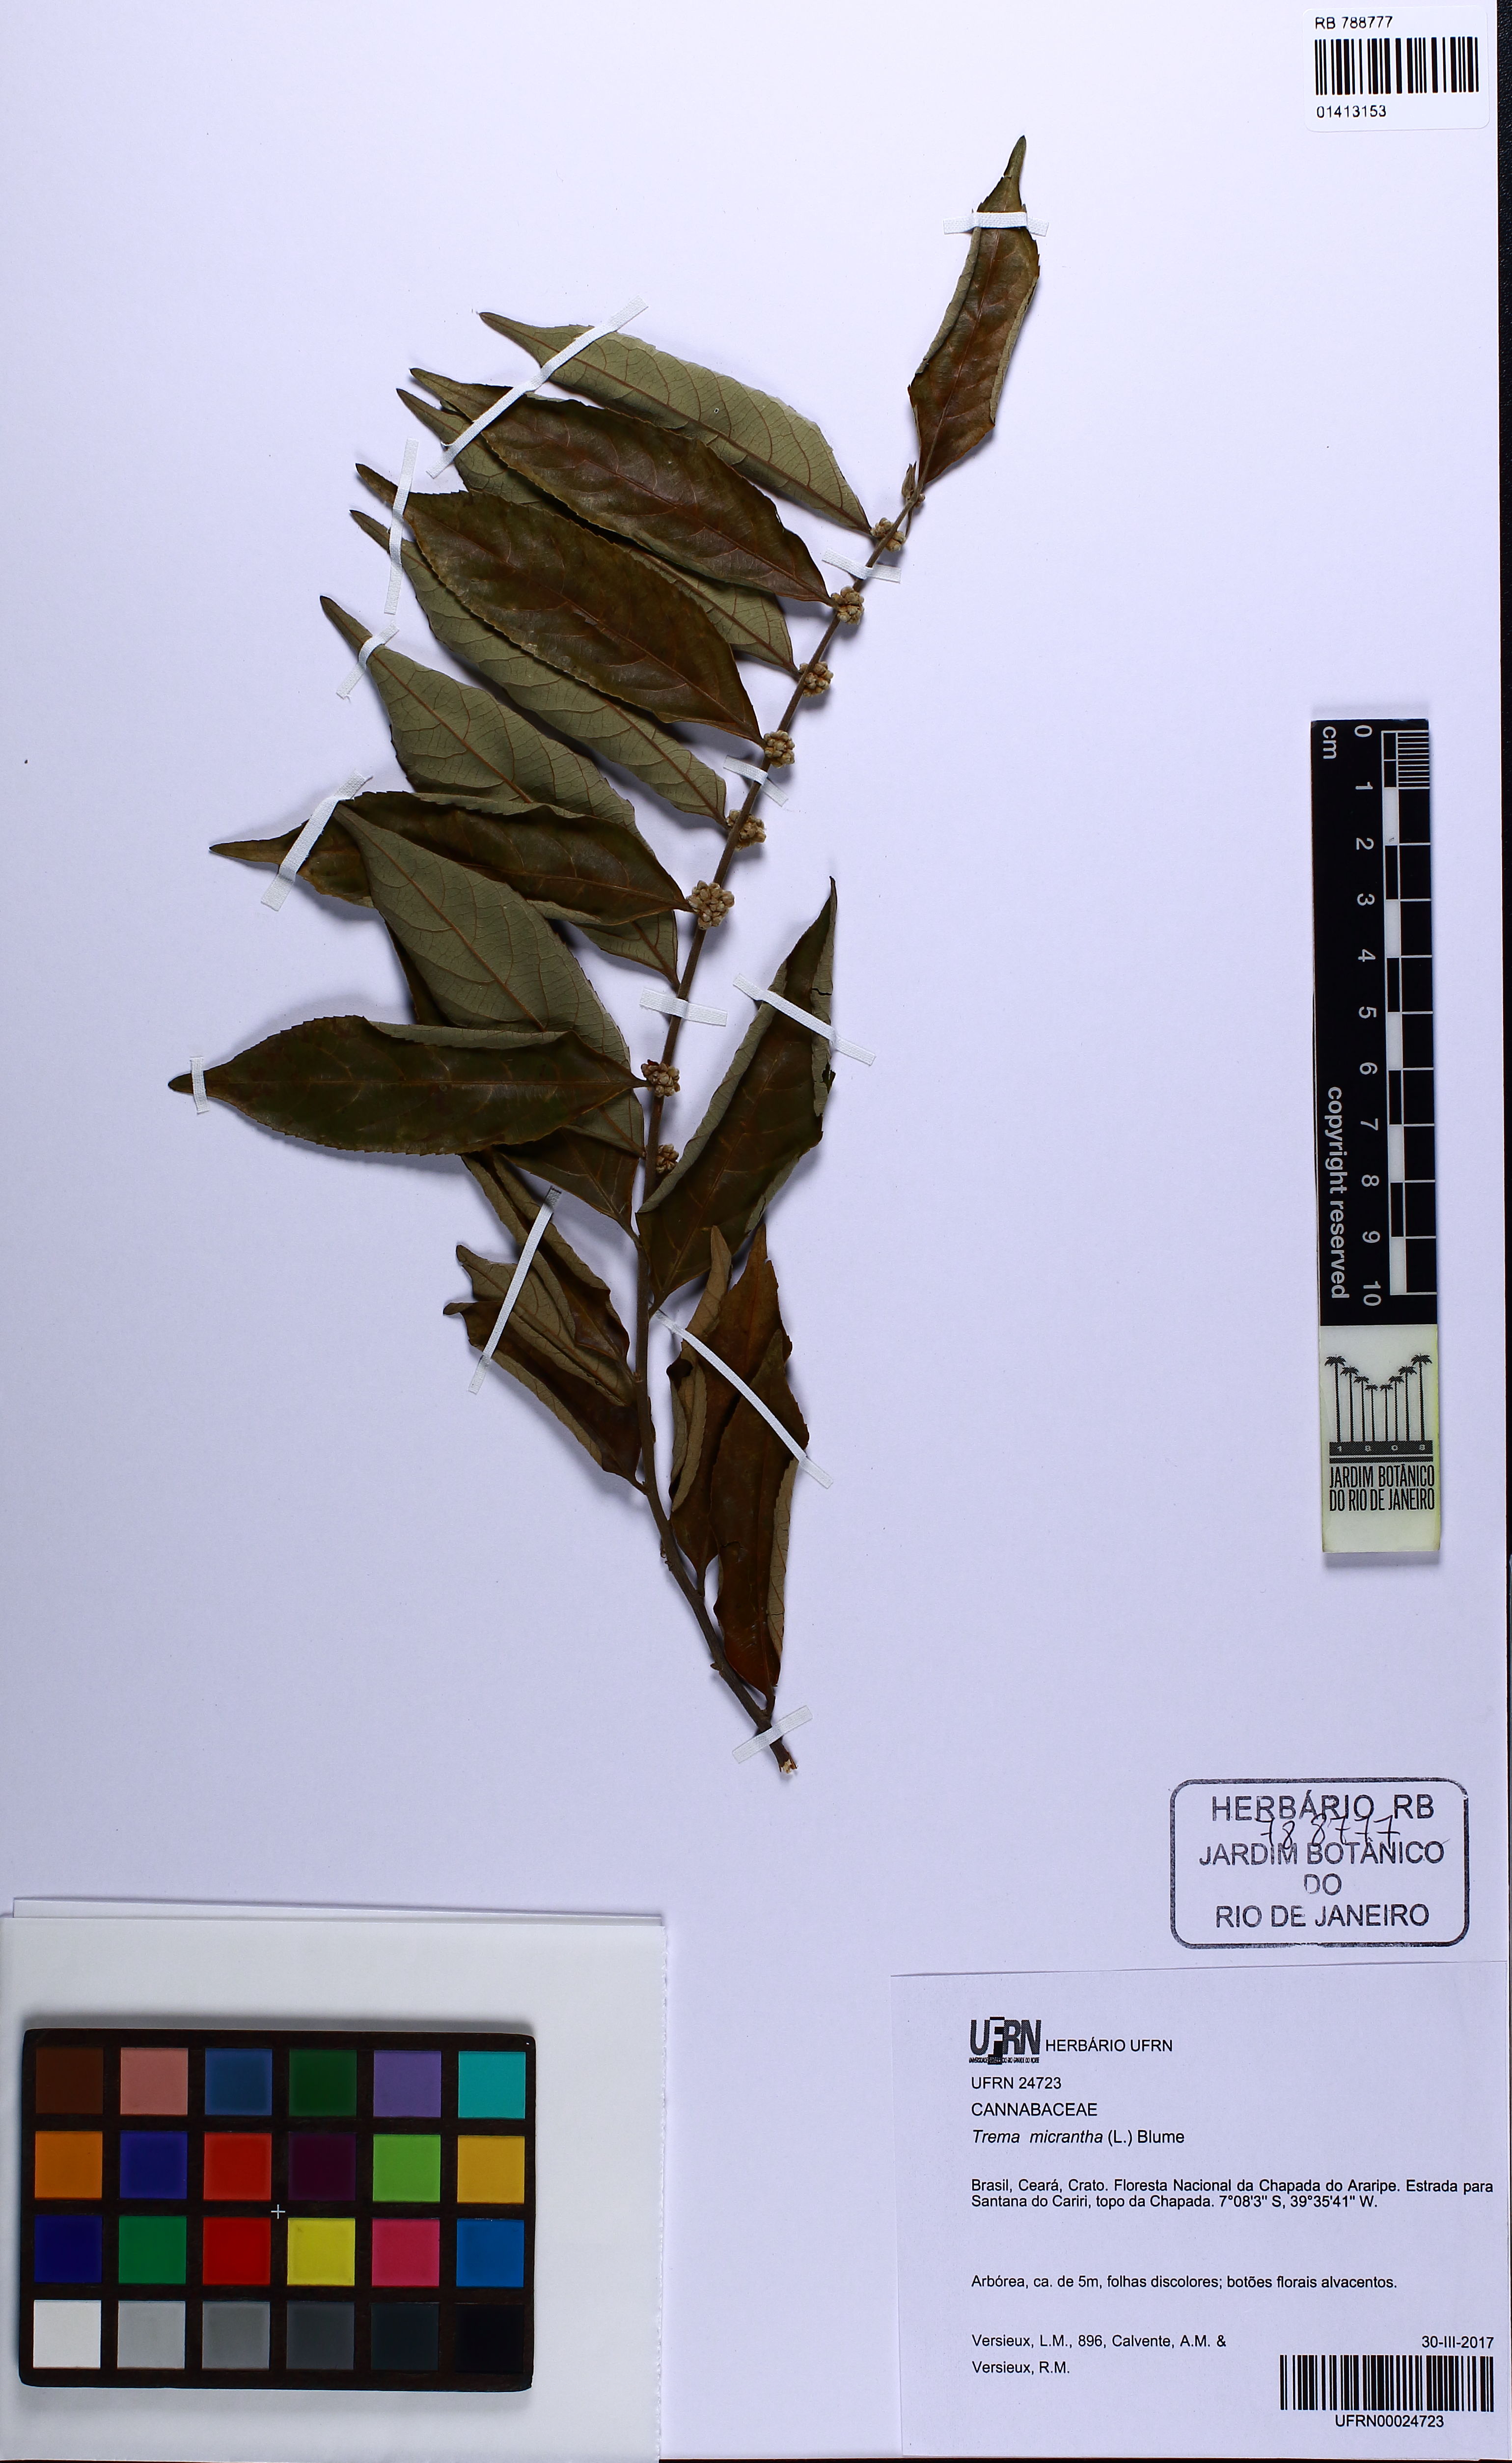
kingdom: Plantae
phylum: Tracheophyta
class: Magnoliopsida
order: Rosales
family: Cannabaceae
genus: Trema
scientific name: Trema micranthum
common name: Jamaican nettletree
